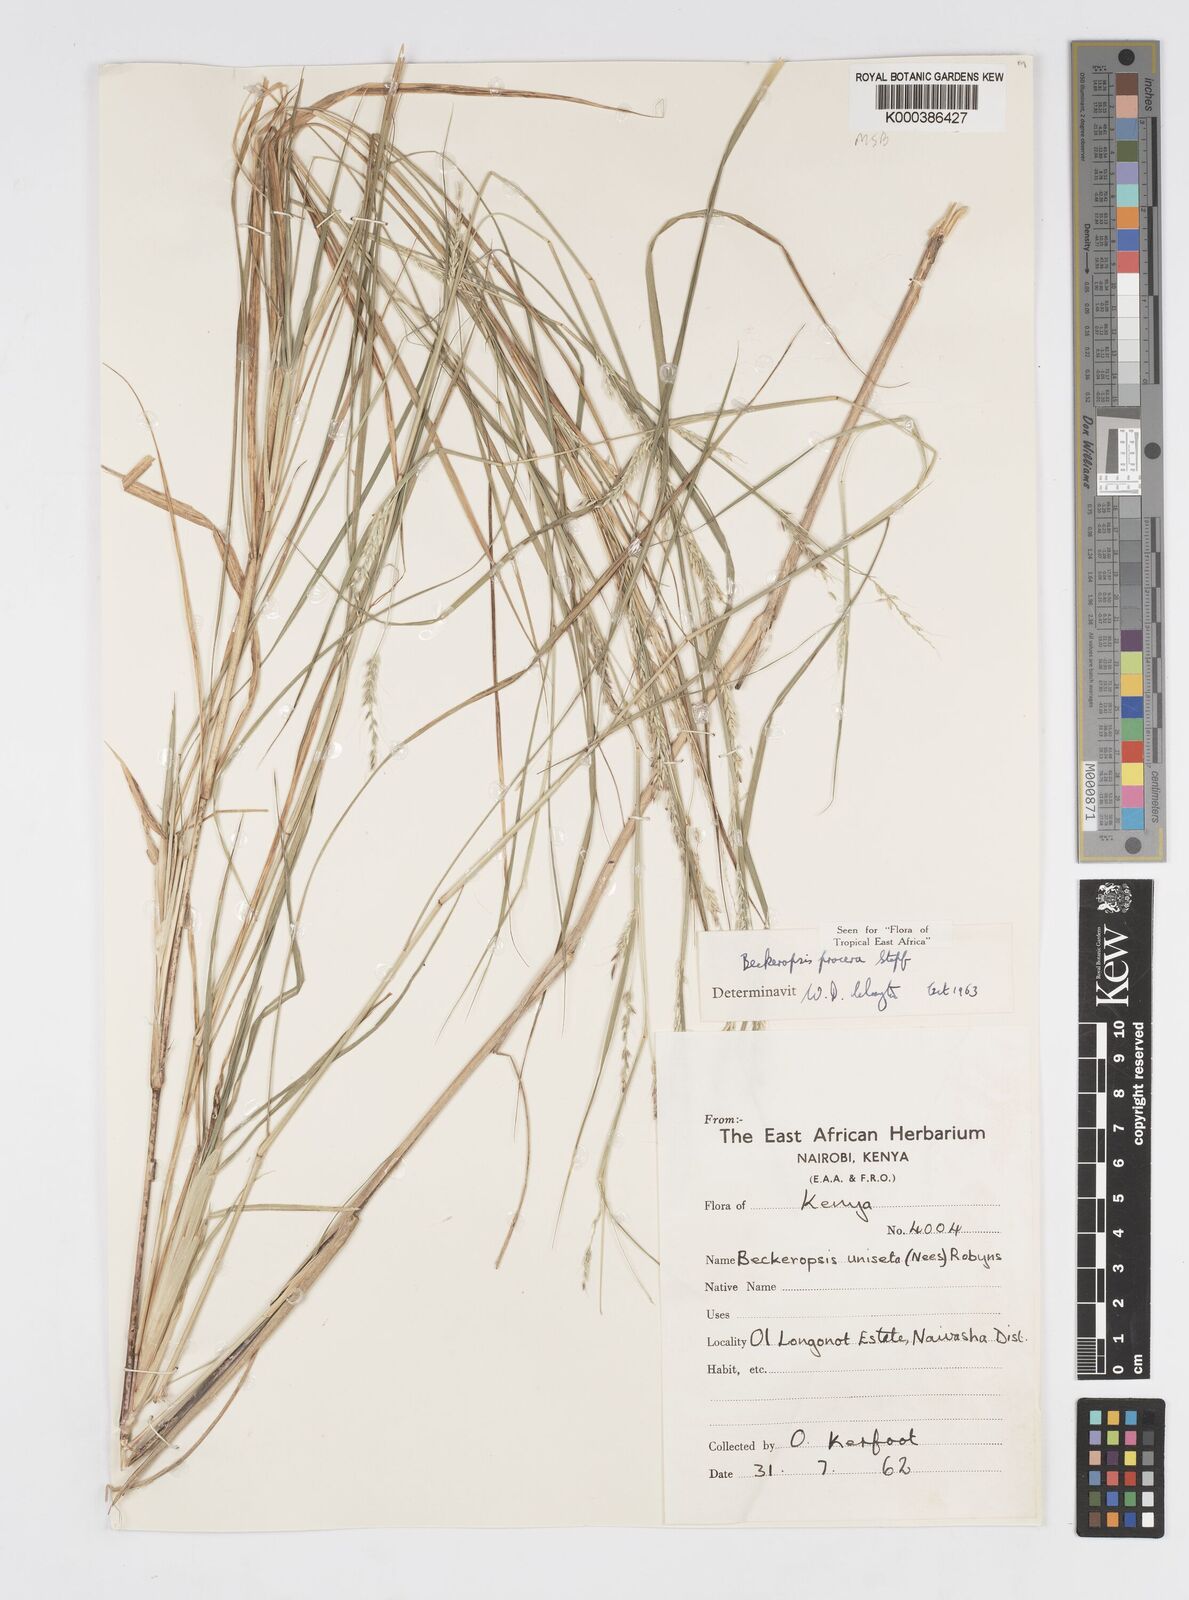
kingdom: Plantae
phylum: Tracheophyta
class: Liliopsida
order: Poales
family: Poaceae
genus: Cenchrus
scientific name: Cenchrus procerus
